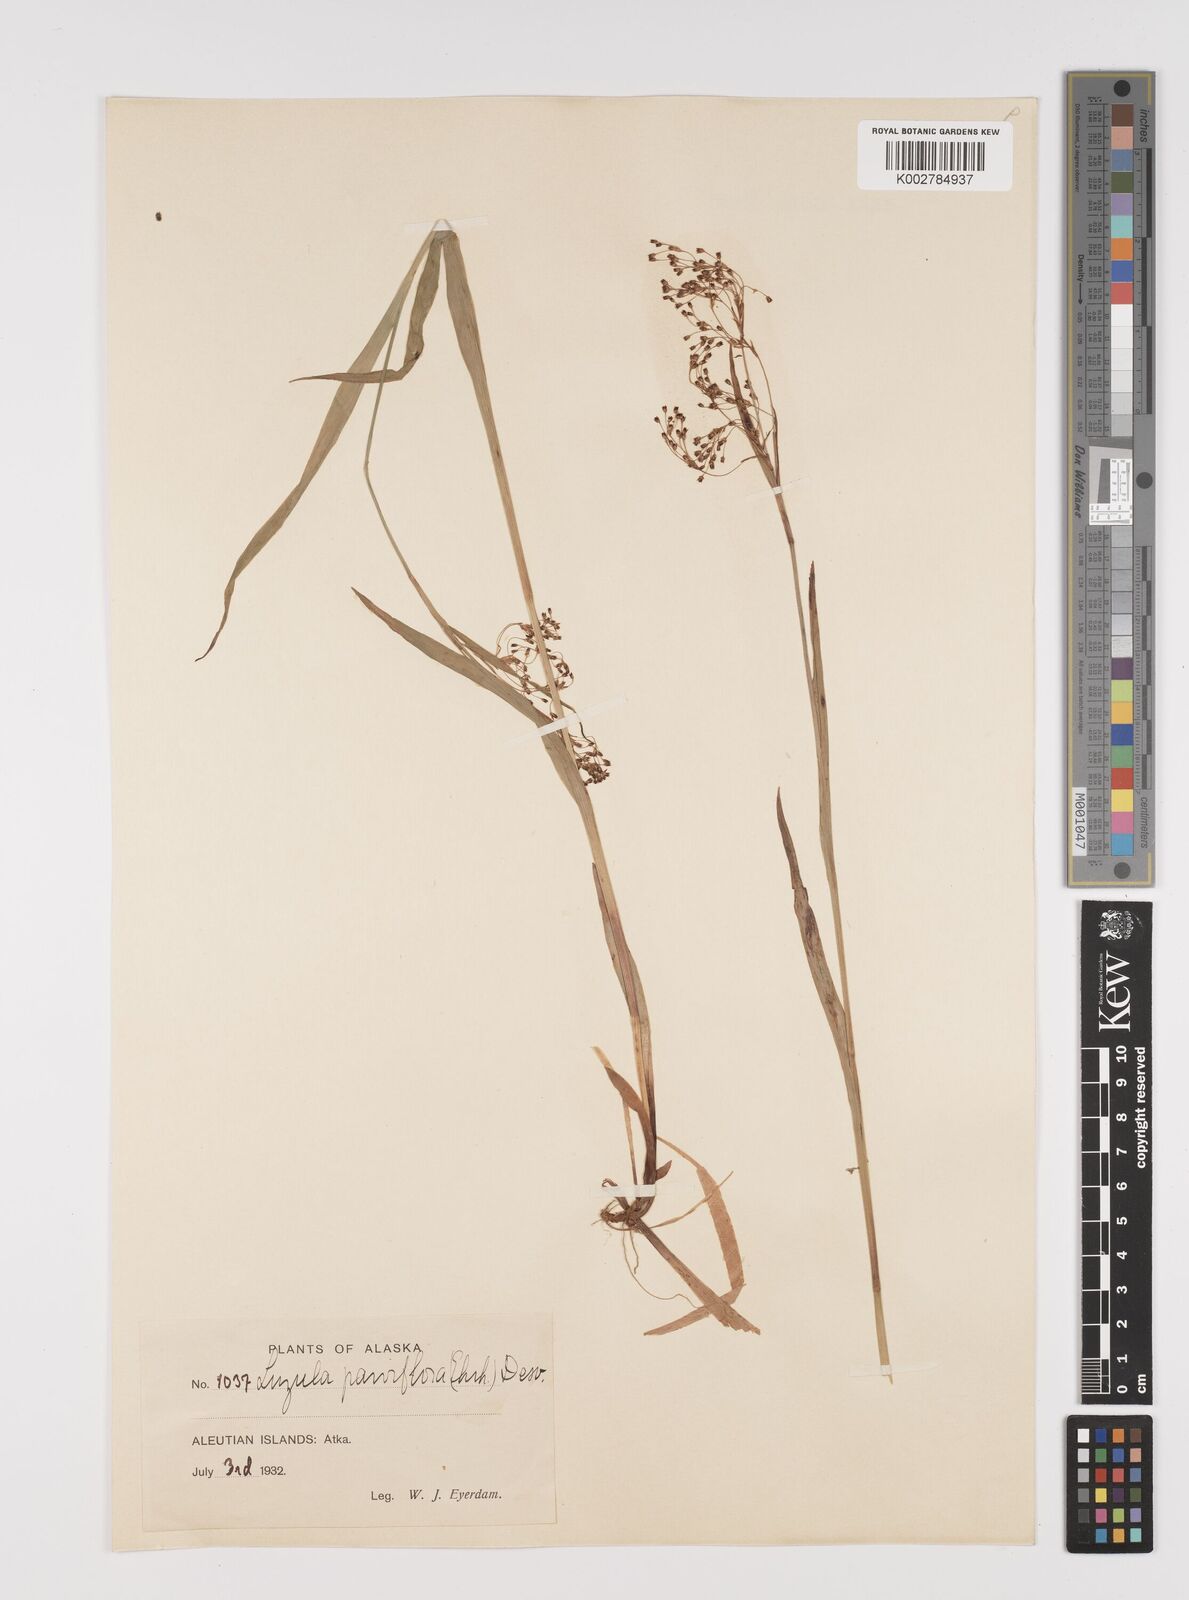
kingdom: Plantae
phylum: Tracheophyta
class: Liliopsida
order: Poales
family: Juncaceae
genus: Luzula
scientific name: Luzula parviflora
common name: Millet woodrush
